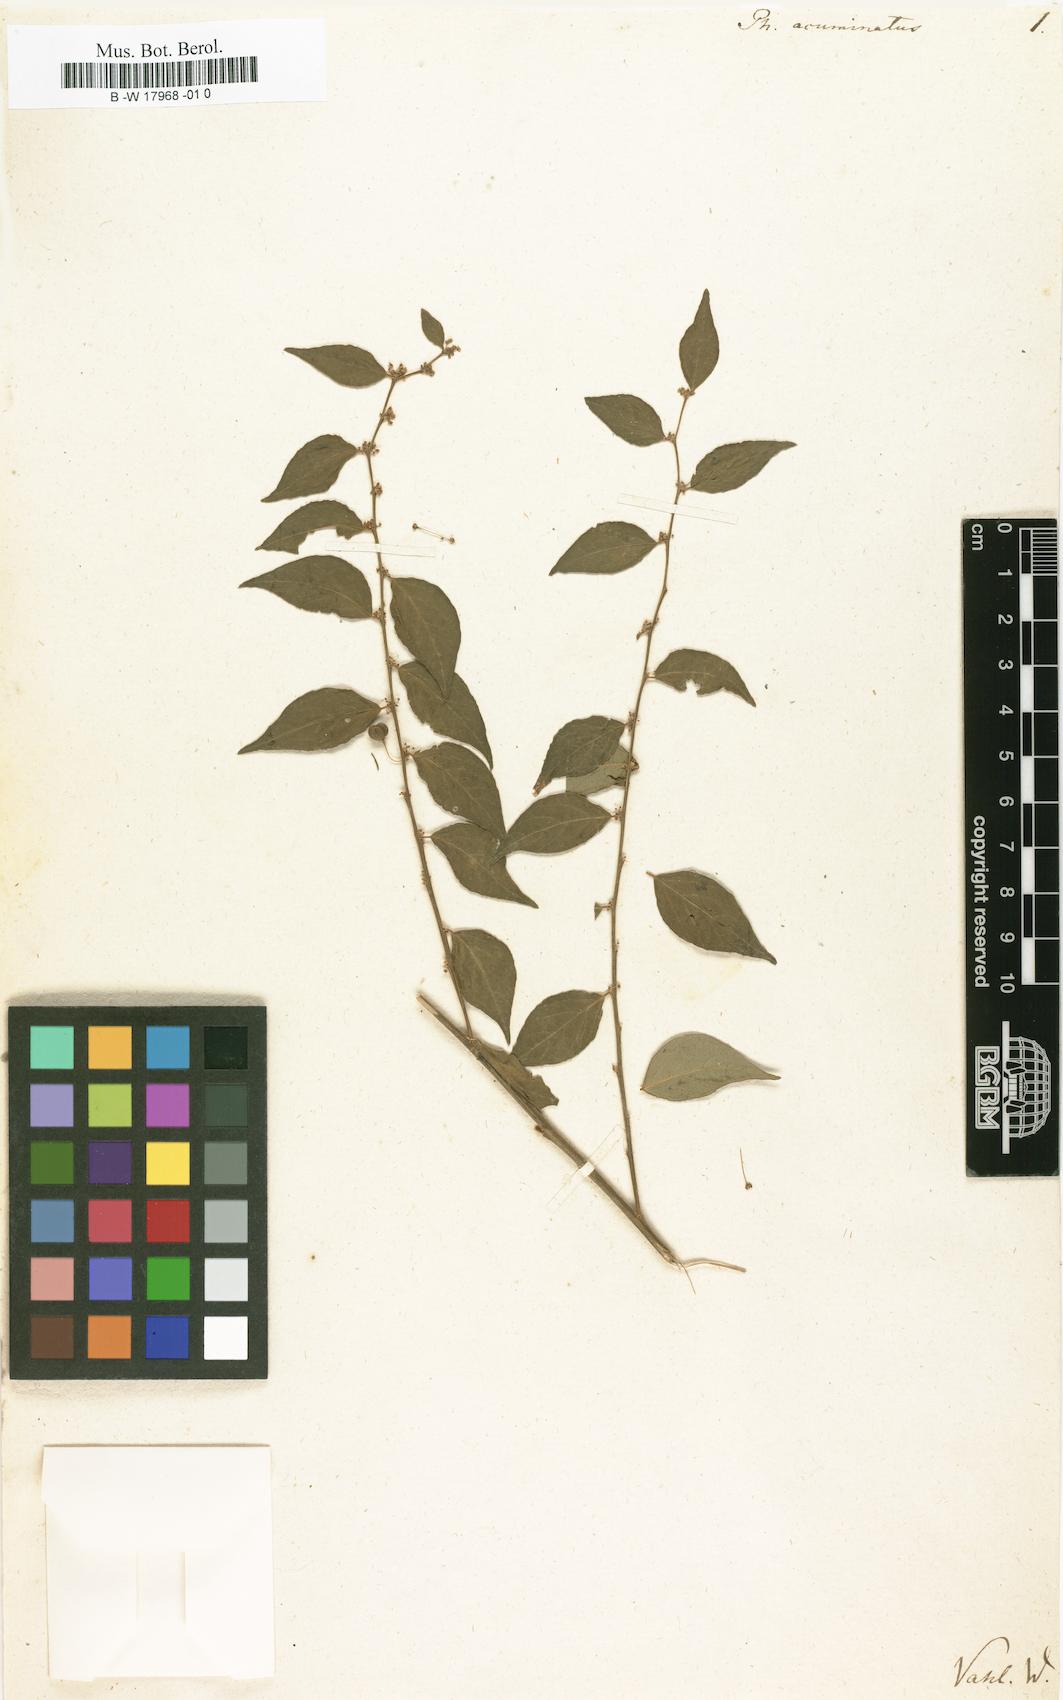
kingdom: Plantae
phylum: Tracheophyta
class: Magnoliopsida
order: Malpighiales
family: Phyllanthaceae
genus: Phyllanthus
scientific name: Phyllanthus acuminatus
